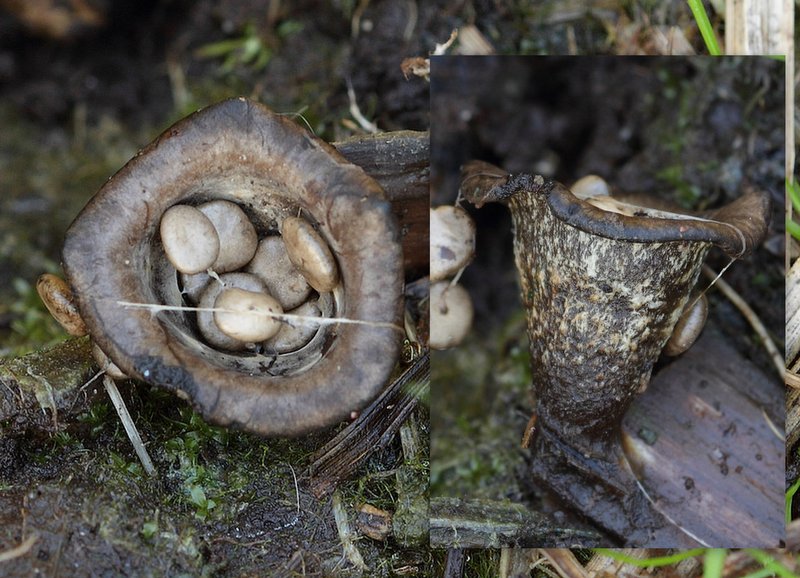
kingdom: Fungi
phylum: Basidiomycota
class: Agaricomycetes
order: Agaricales
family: Agaricaceae
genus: Cyathus
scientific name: Cyathus olla
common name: klokke-redesvamp
